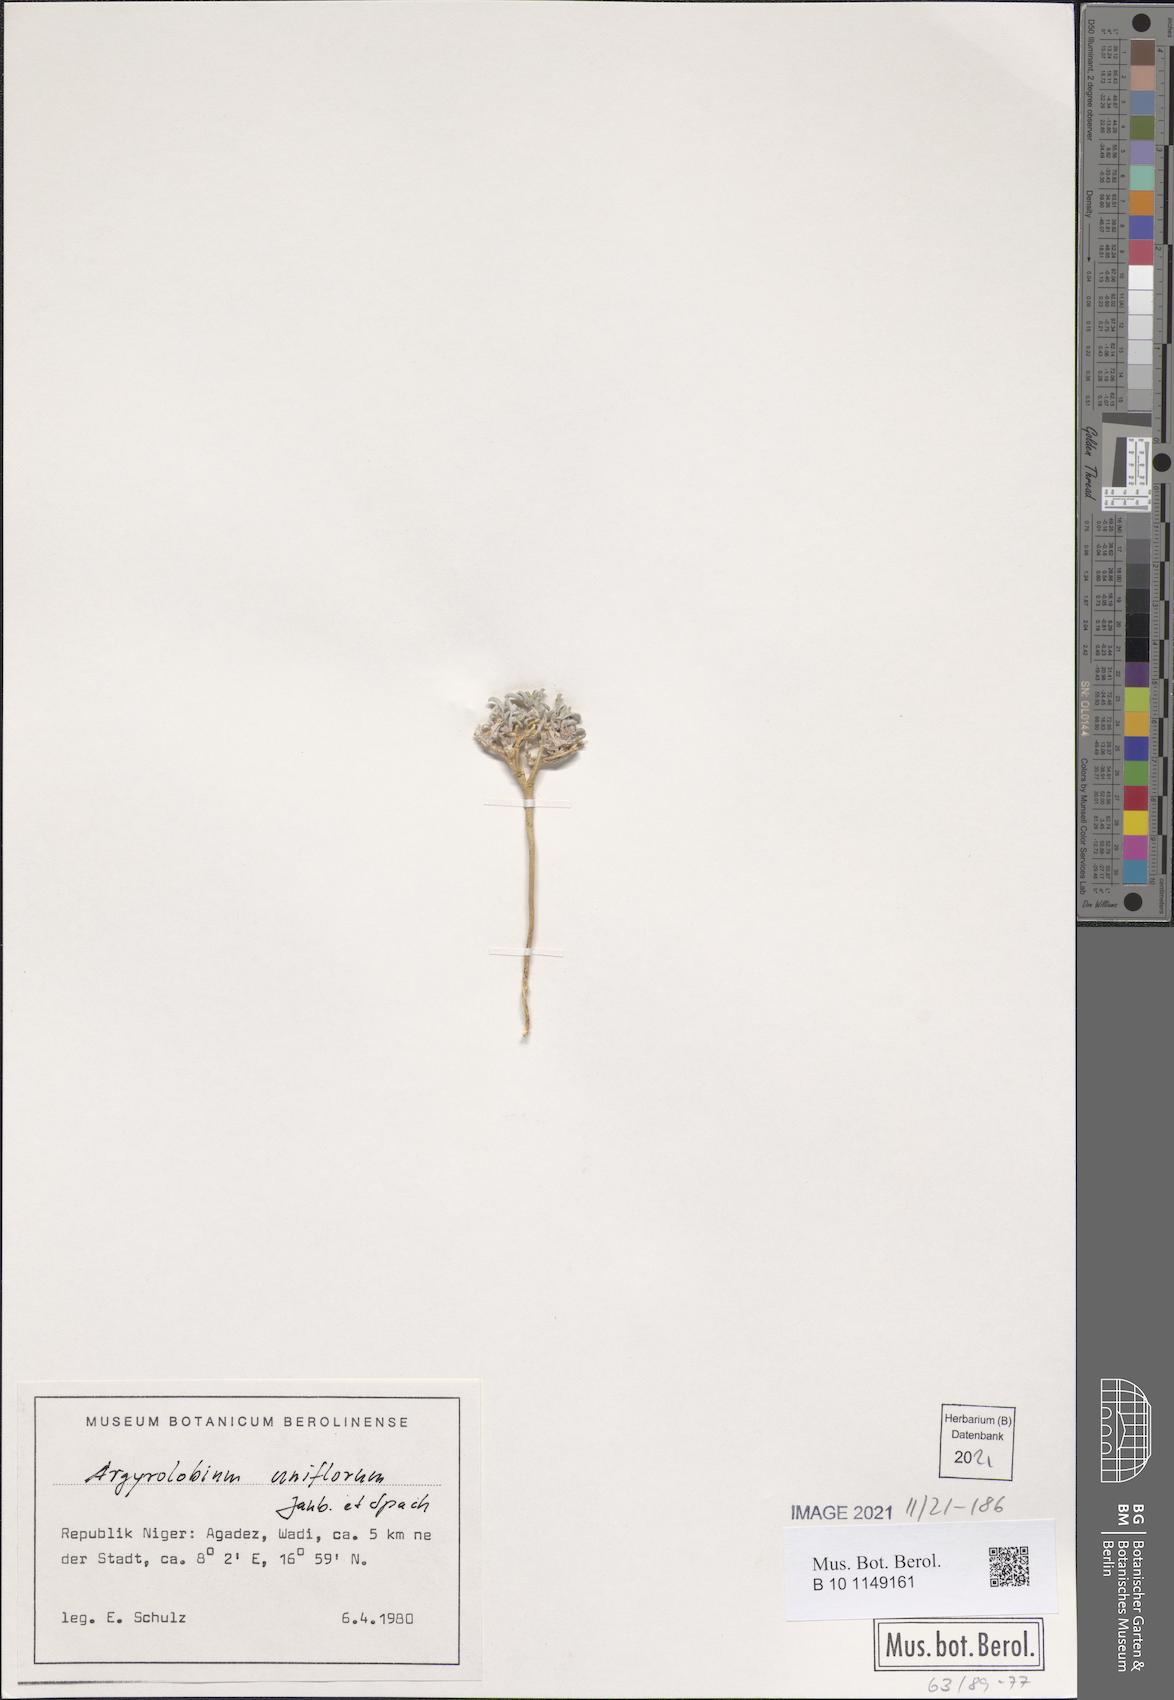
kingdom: Plantae
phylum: Tracheophyta
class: Magnoliopsida
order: Fabales
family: Fabaceae
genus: Argyrolobium
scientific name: Argyrolobium uniflorum
